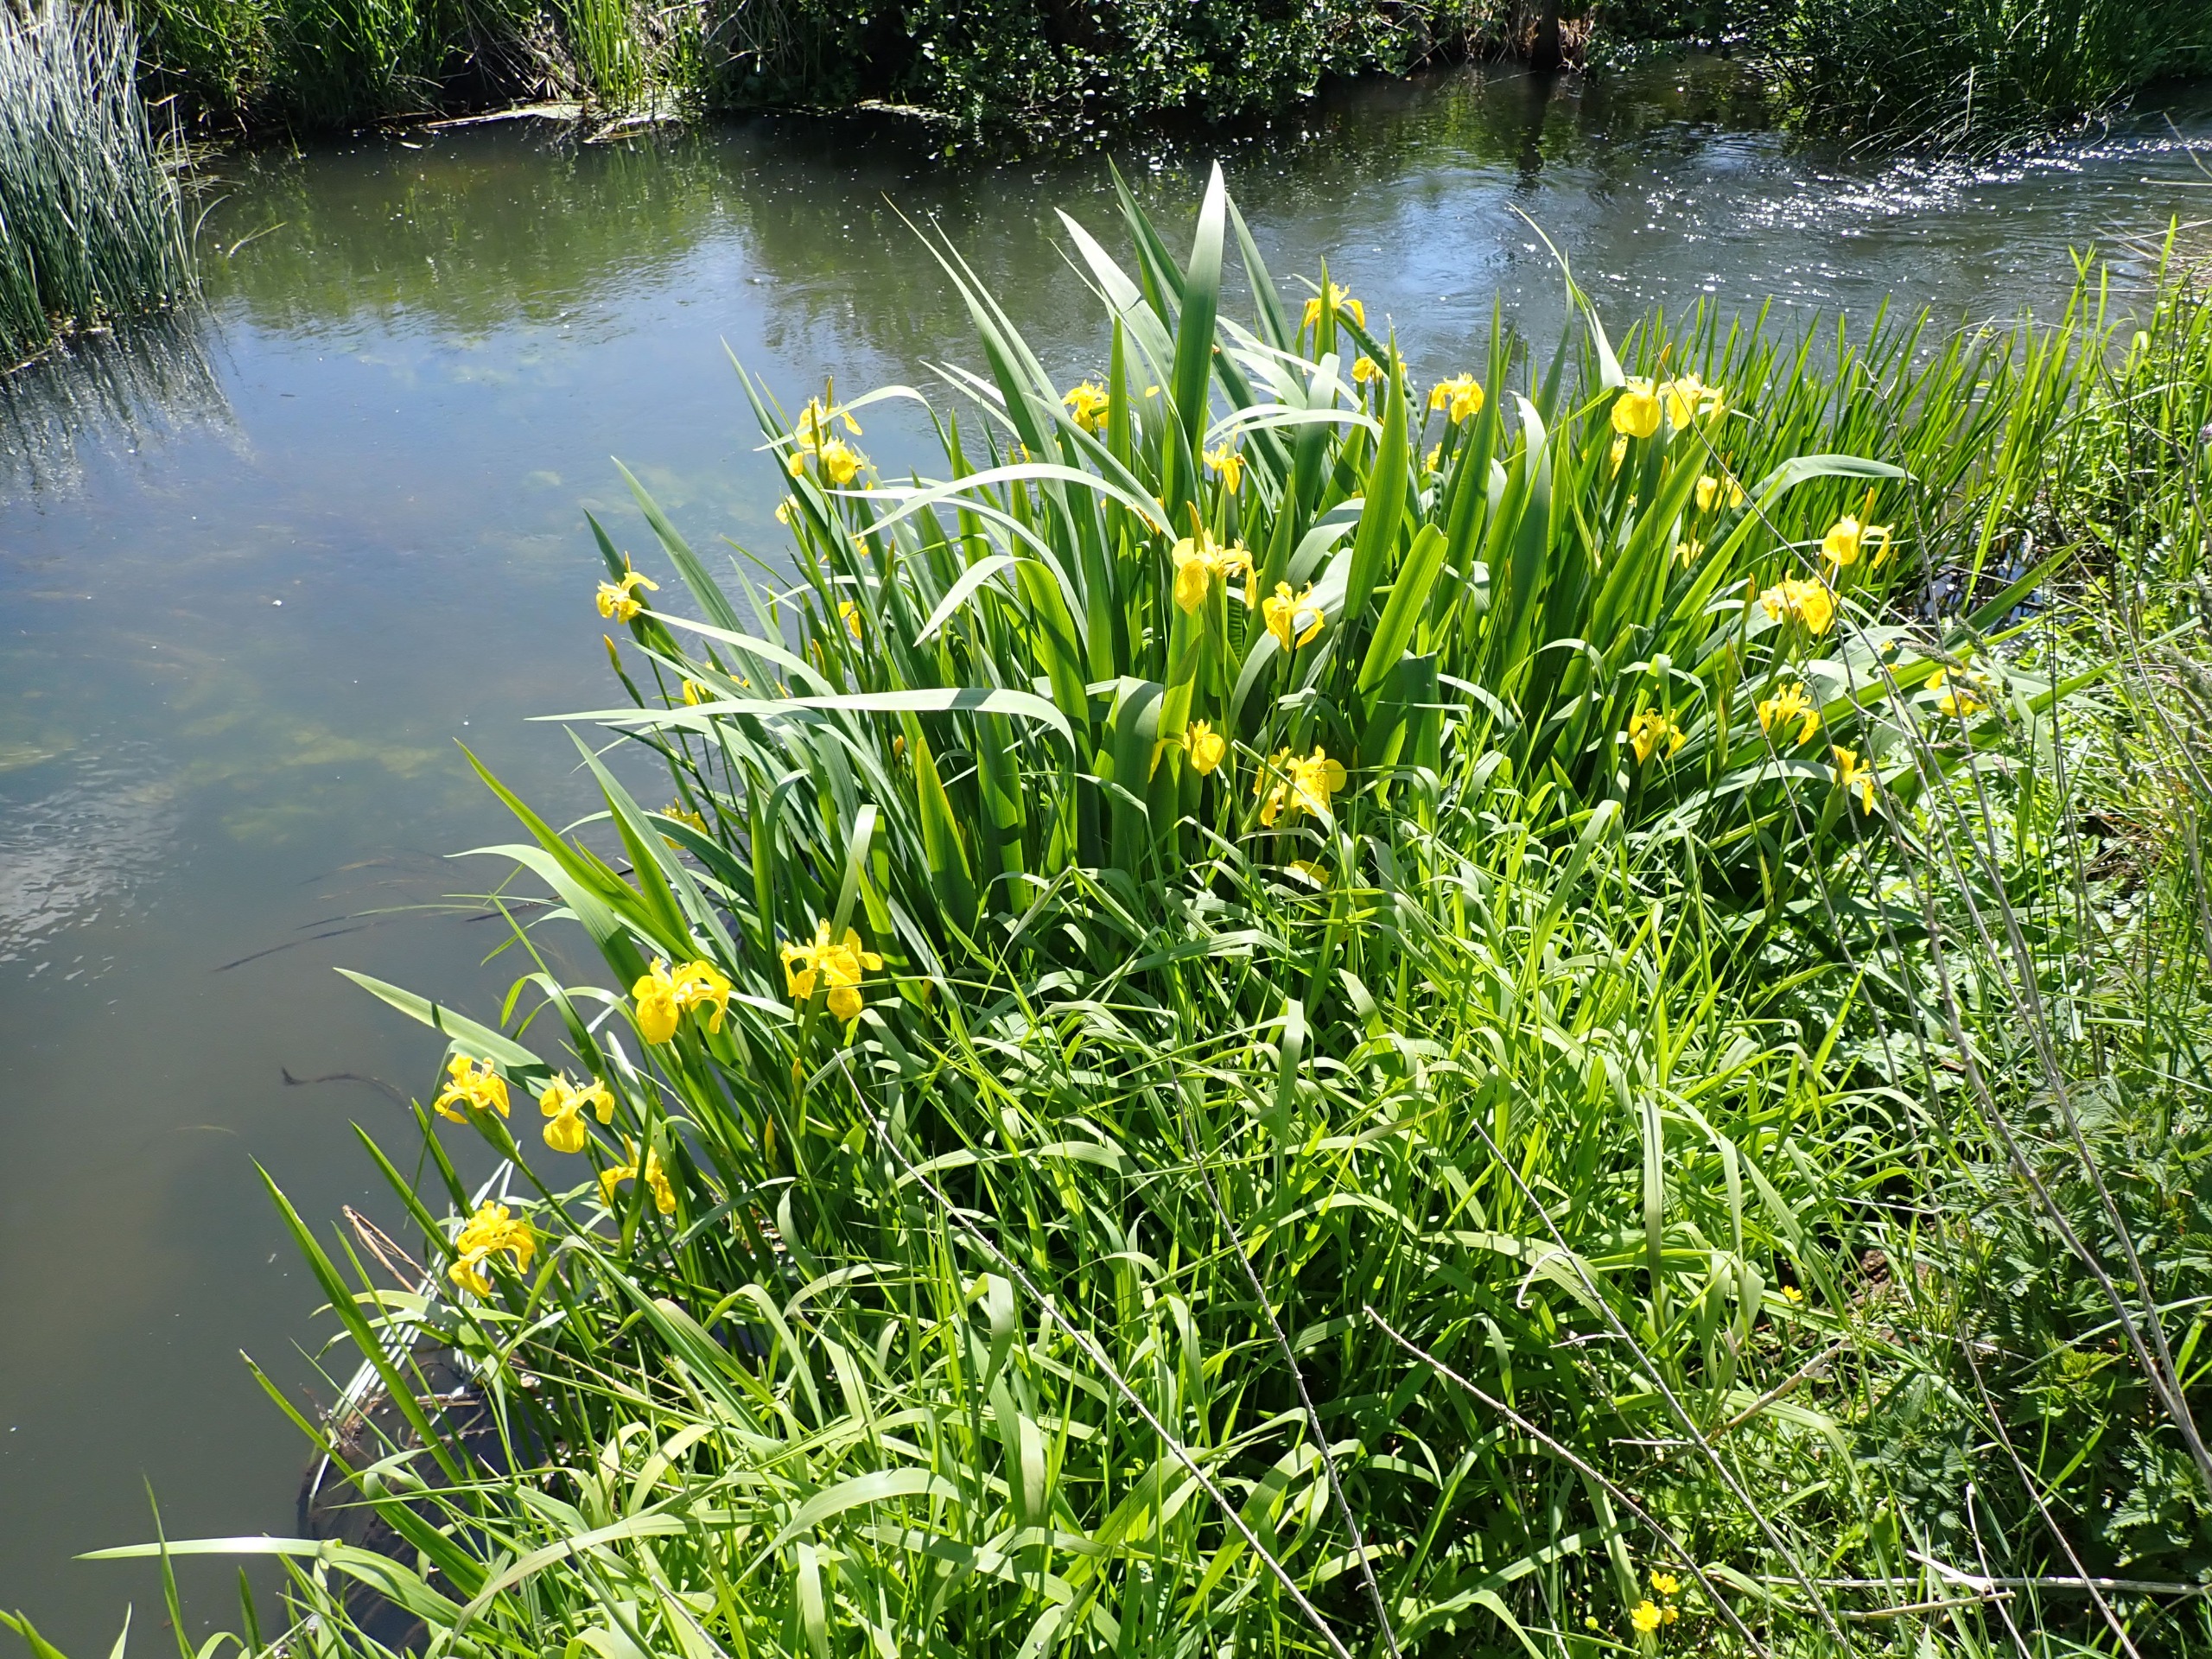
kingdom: Plantae
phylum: Tracheophyta
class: Liliopsida
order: Asparagales
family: Iridaceae
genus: Iris
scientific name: Iris pseudacorus
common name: Gul iris
